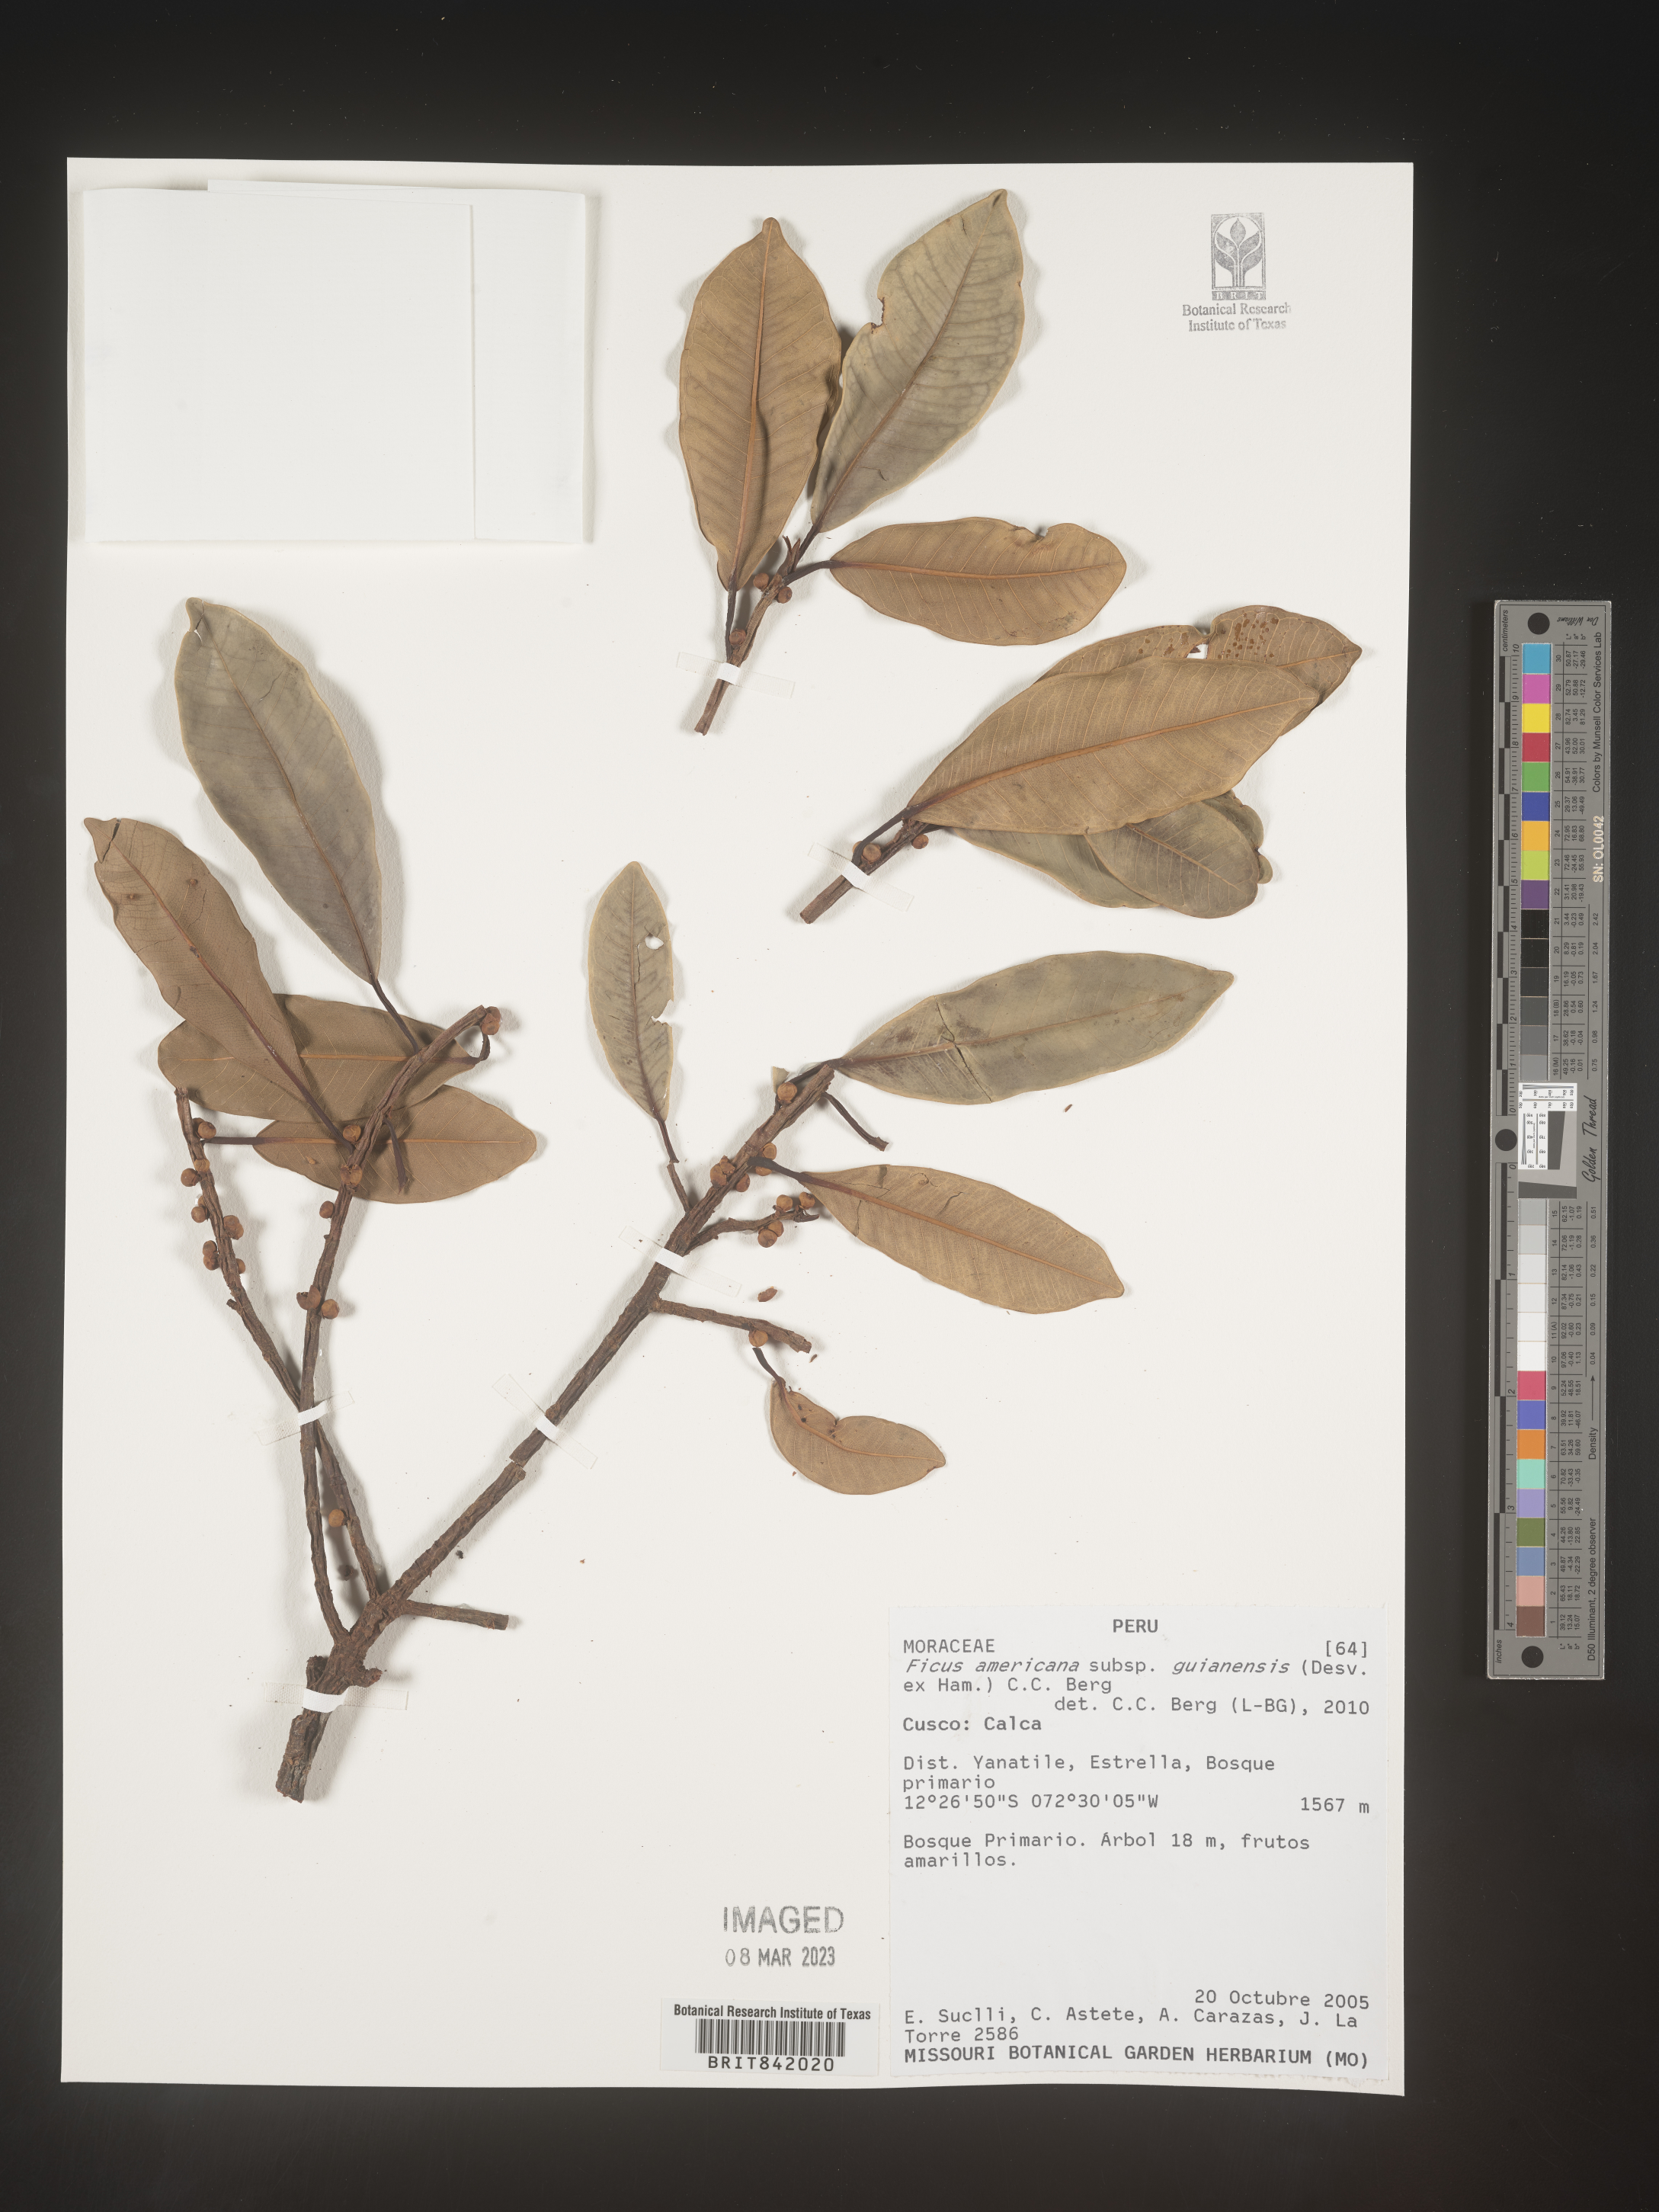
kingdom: Plantae
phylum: Tracheophyta
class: Magnoliopsida
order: Rosales
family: Moraceae
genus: Ficus
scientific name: Ficus americana
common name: Jamaican cherry fig
